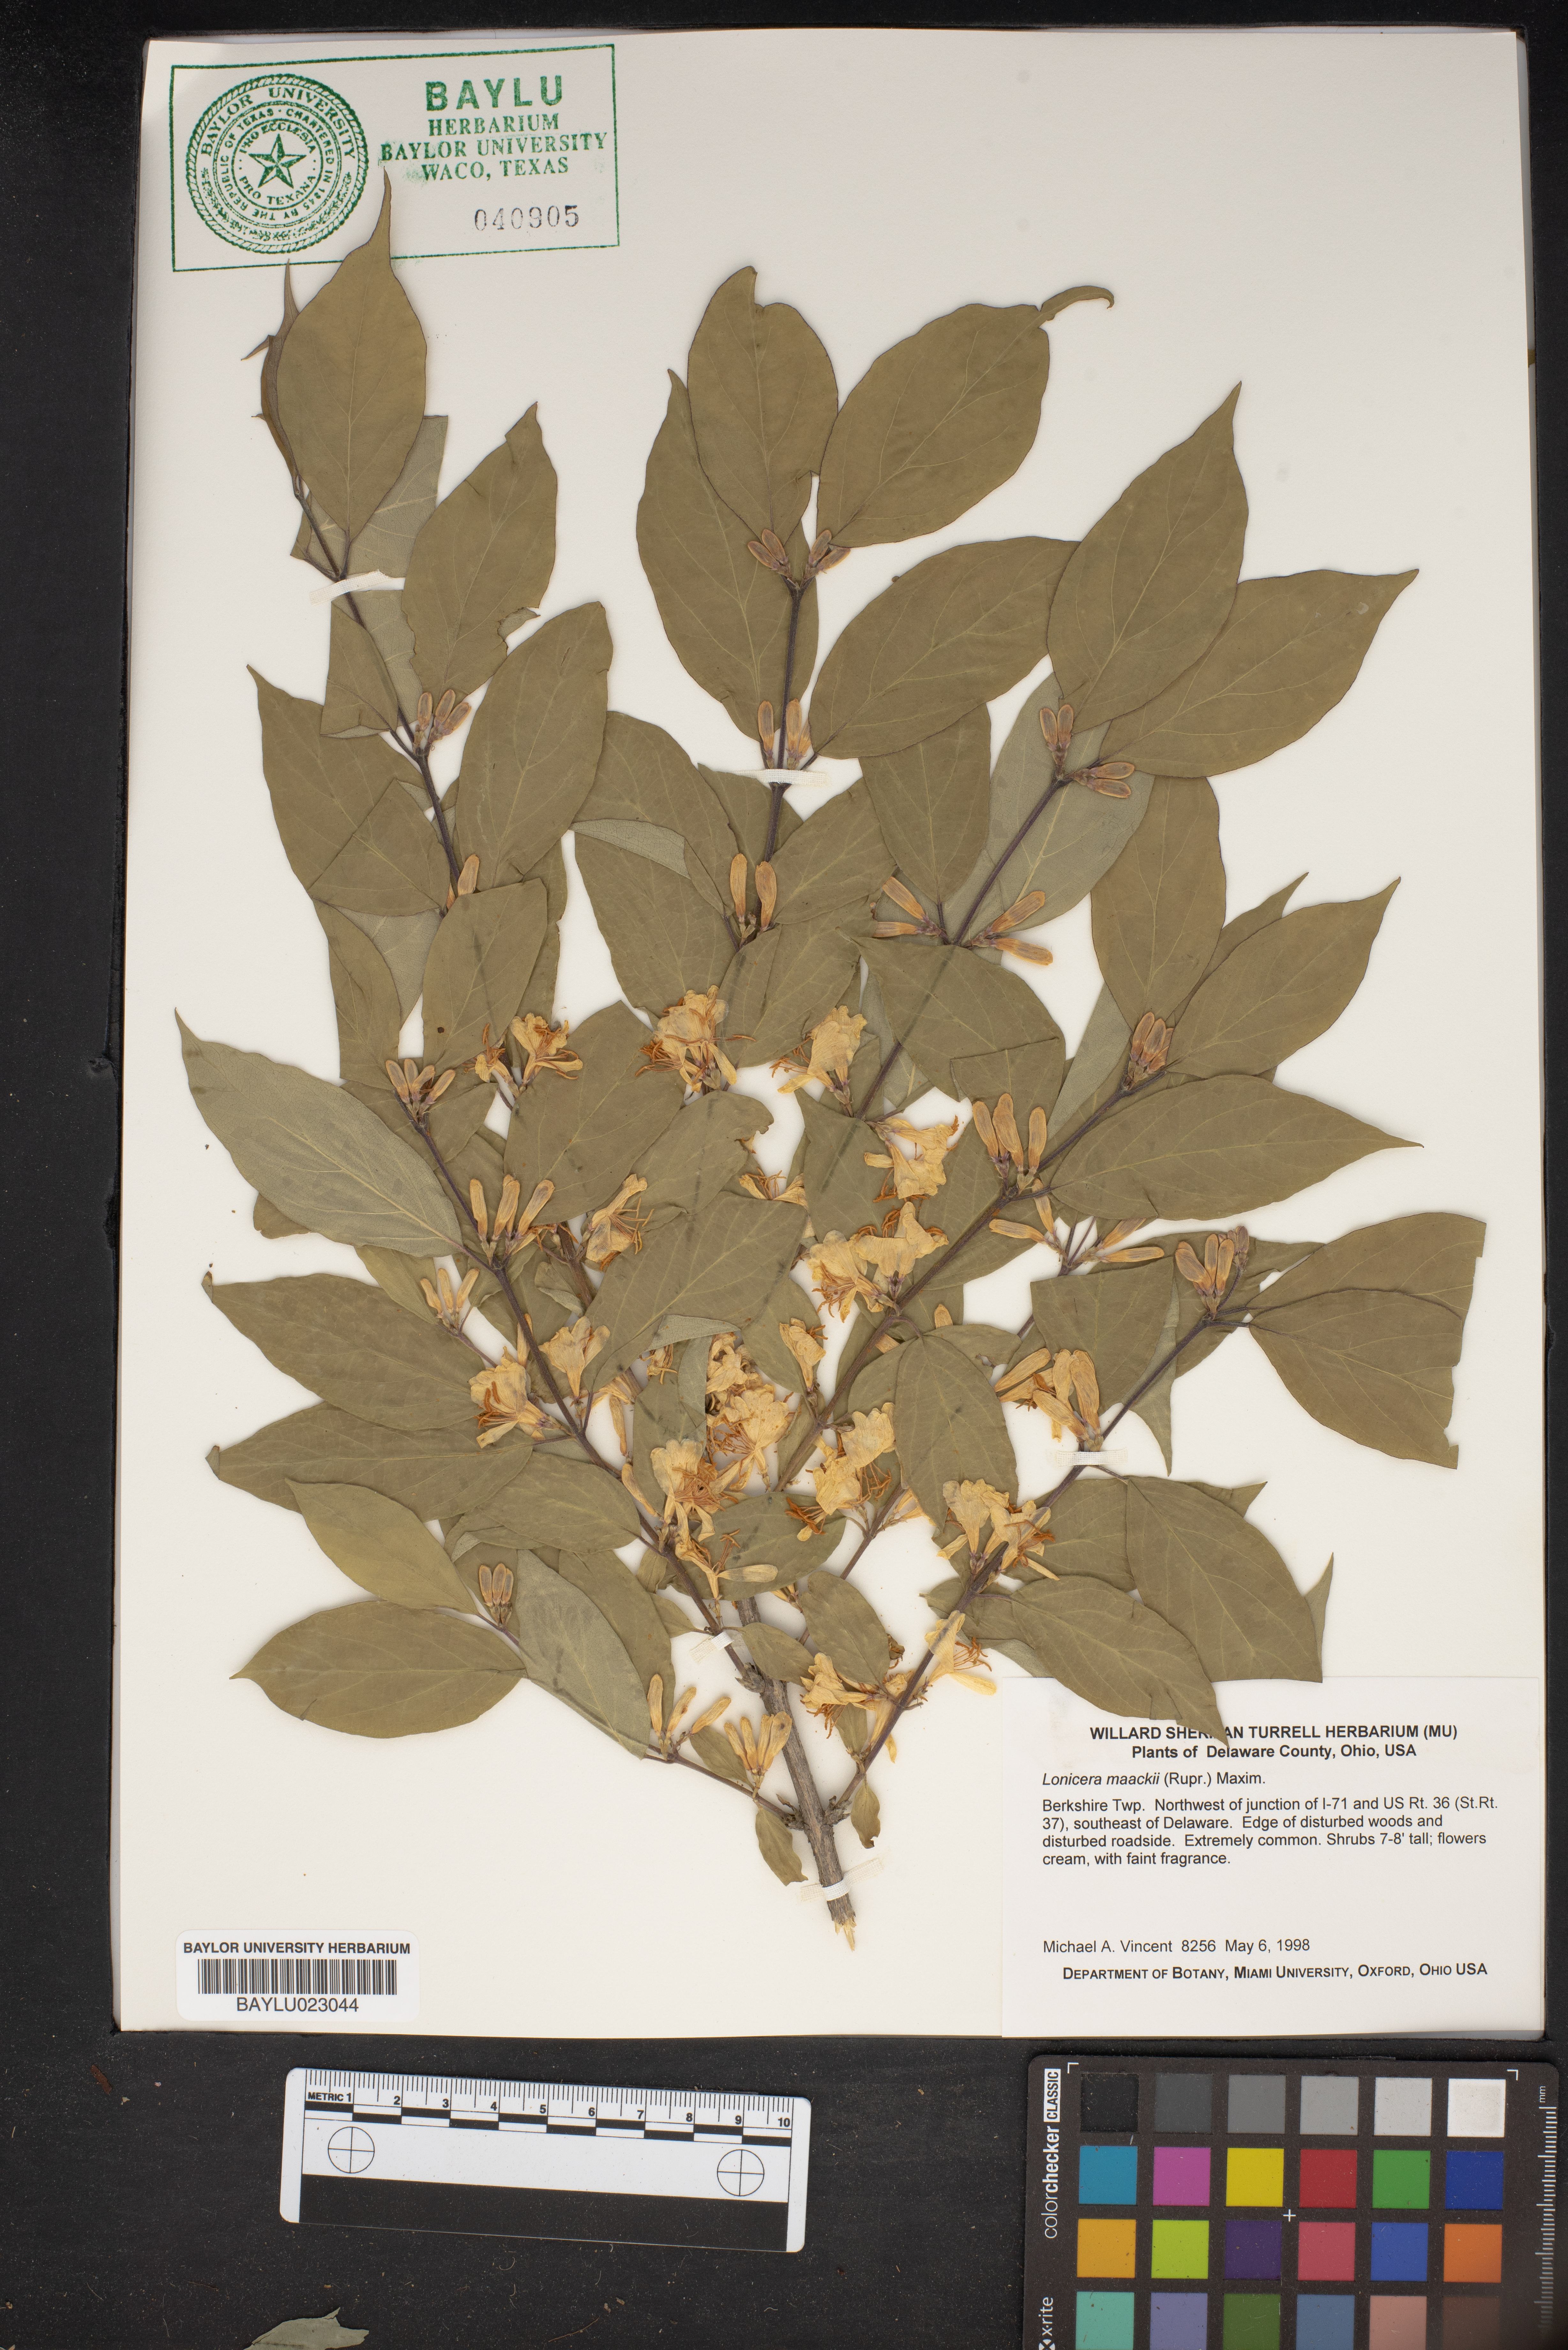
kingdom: Plantae
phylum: Tracheophyta
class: Magnoliopsida
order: Dipsacales
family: Caprifoliaceae
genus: Lonicera
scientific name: Lonicera maackii
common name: Amur honeysuckle
